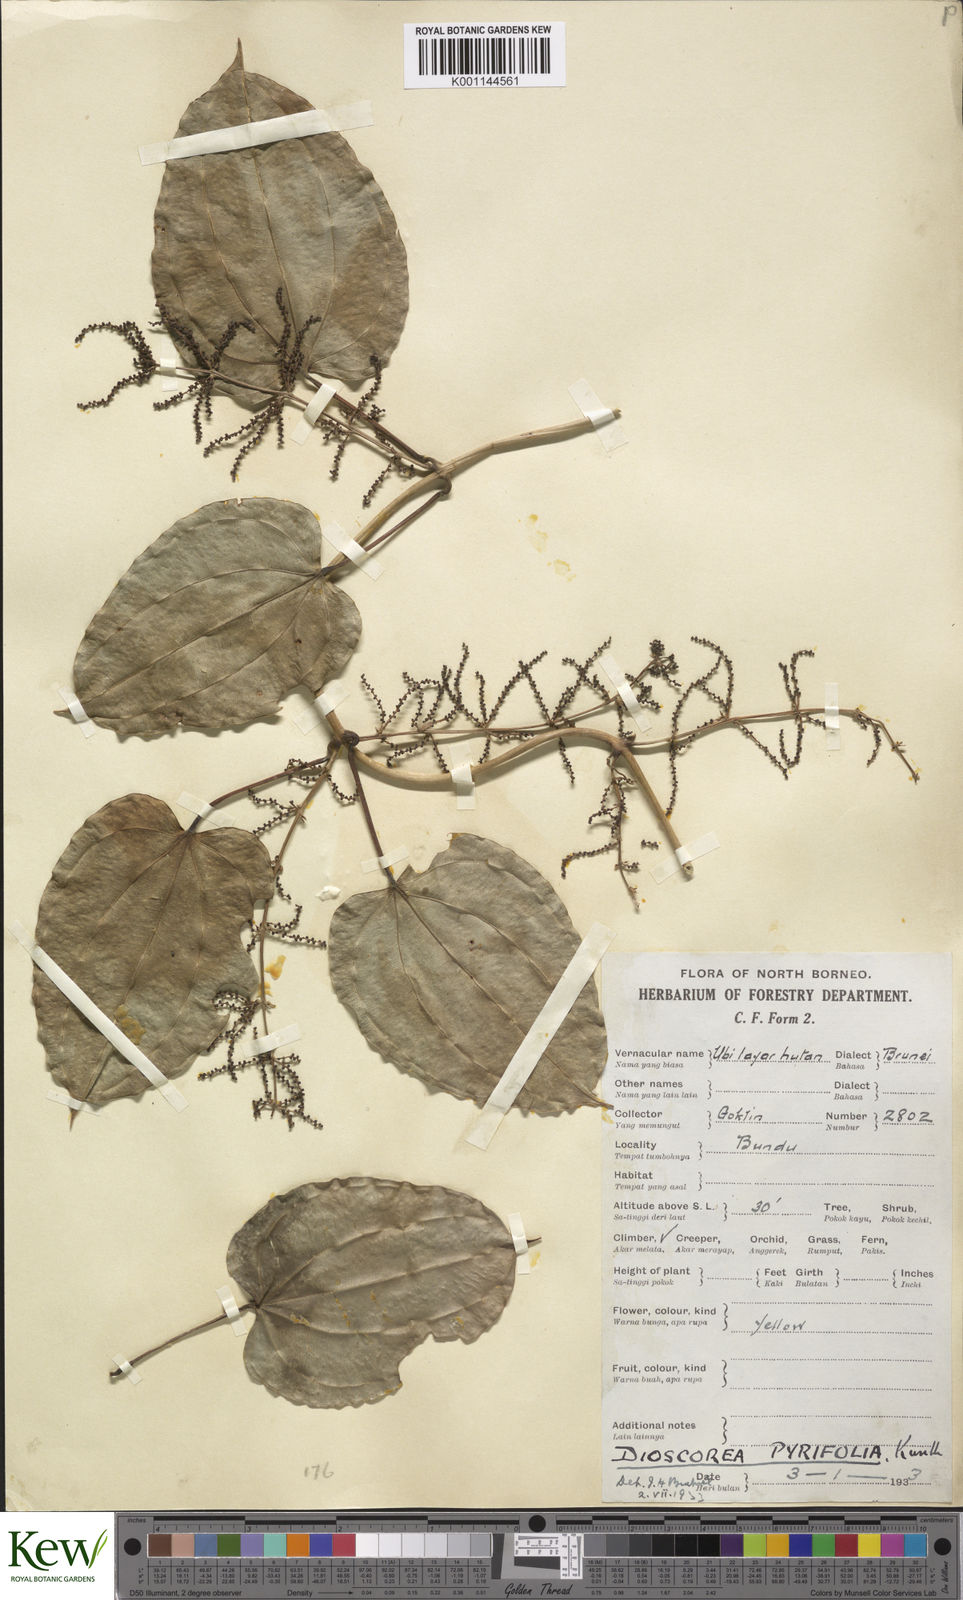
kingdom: Plantae
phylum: Tracheophyta
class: Liliopsida
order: Dioscoreales
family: Dioscoreaceae
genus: Dioscorea
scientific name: Dioscorea pyrifolia
